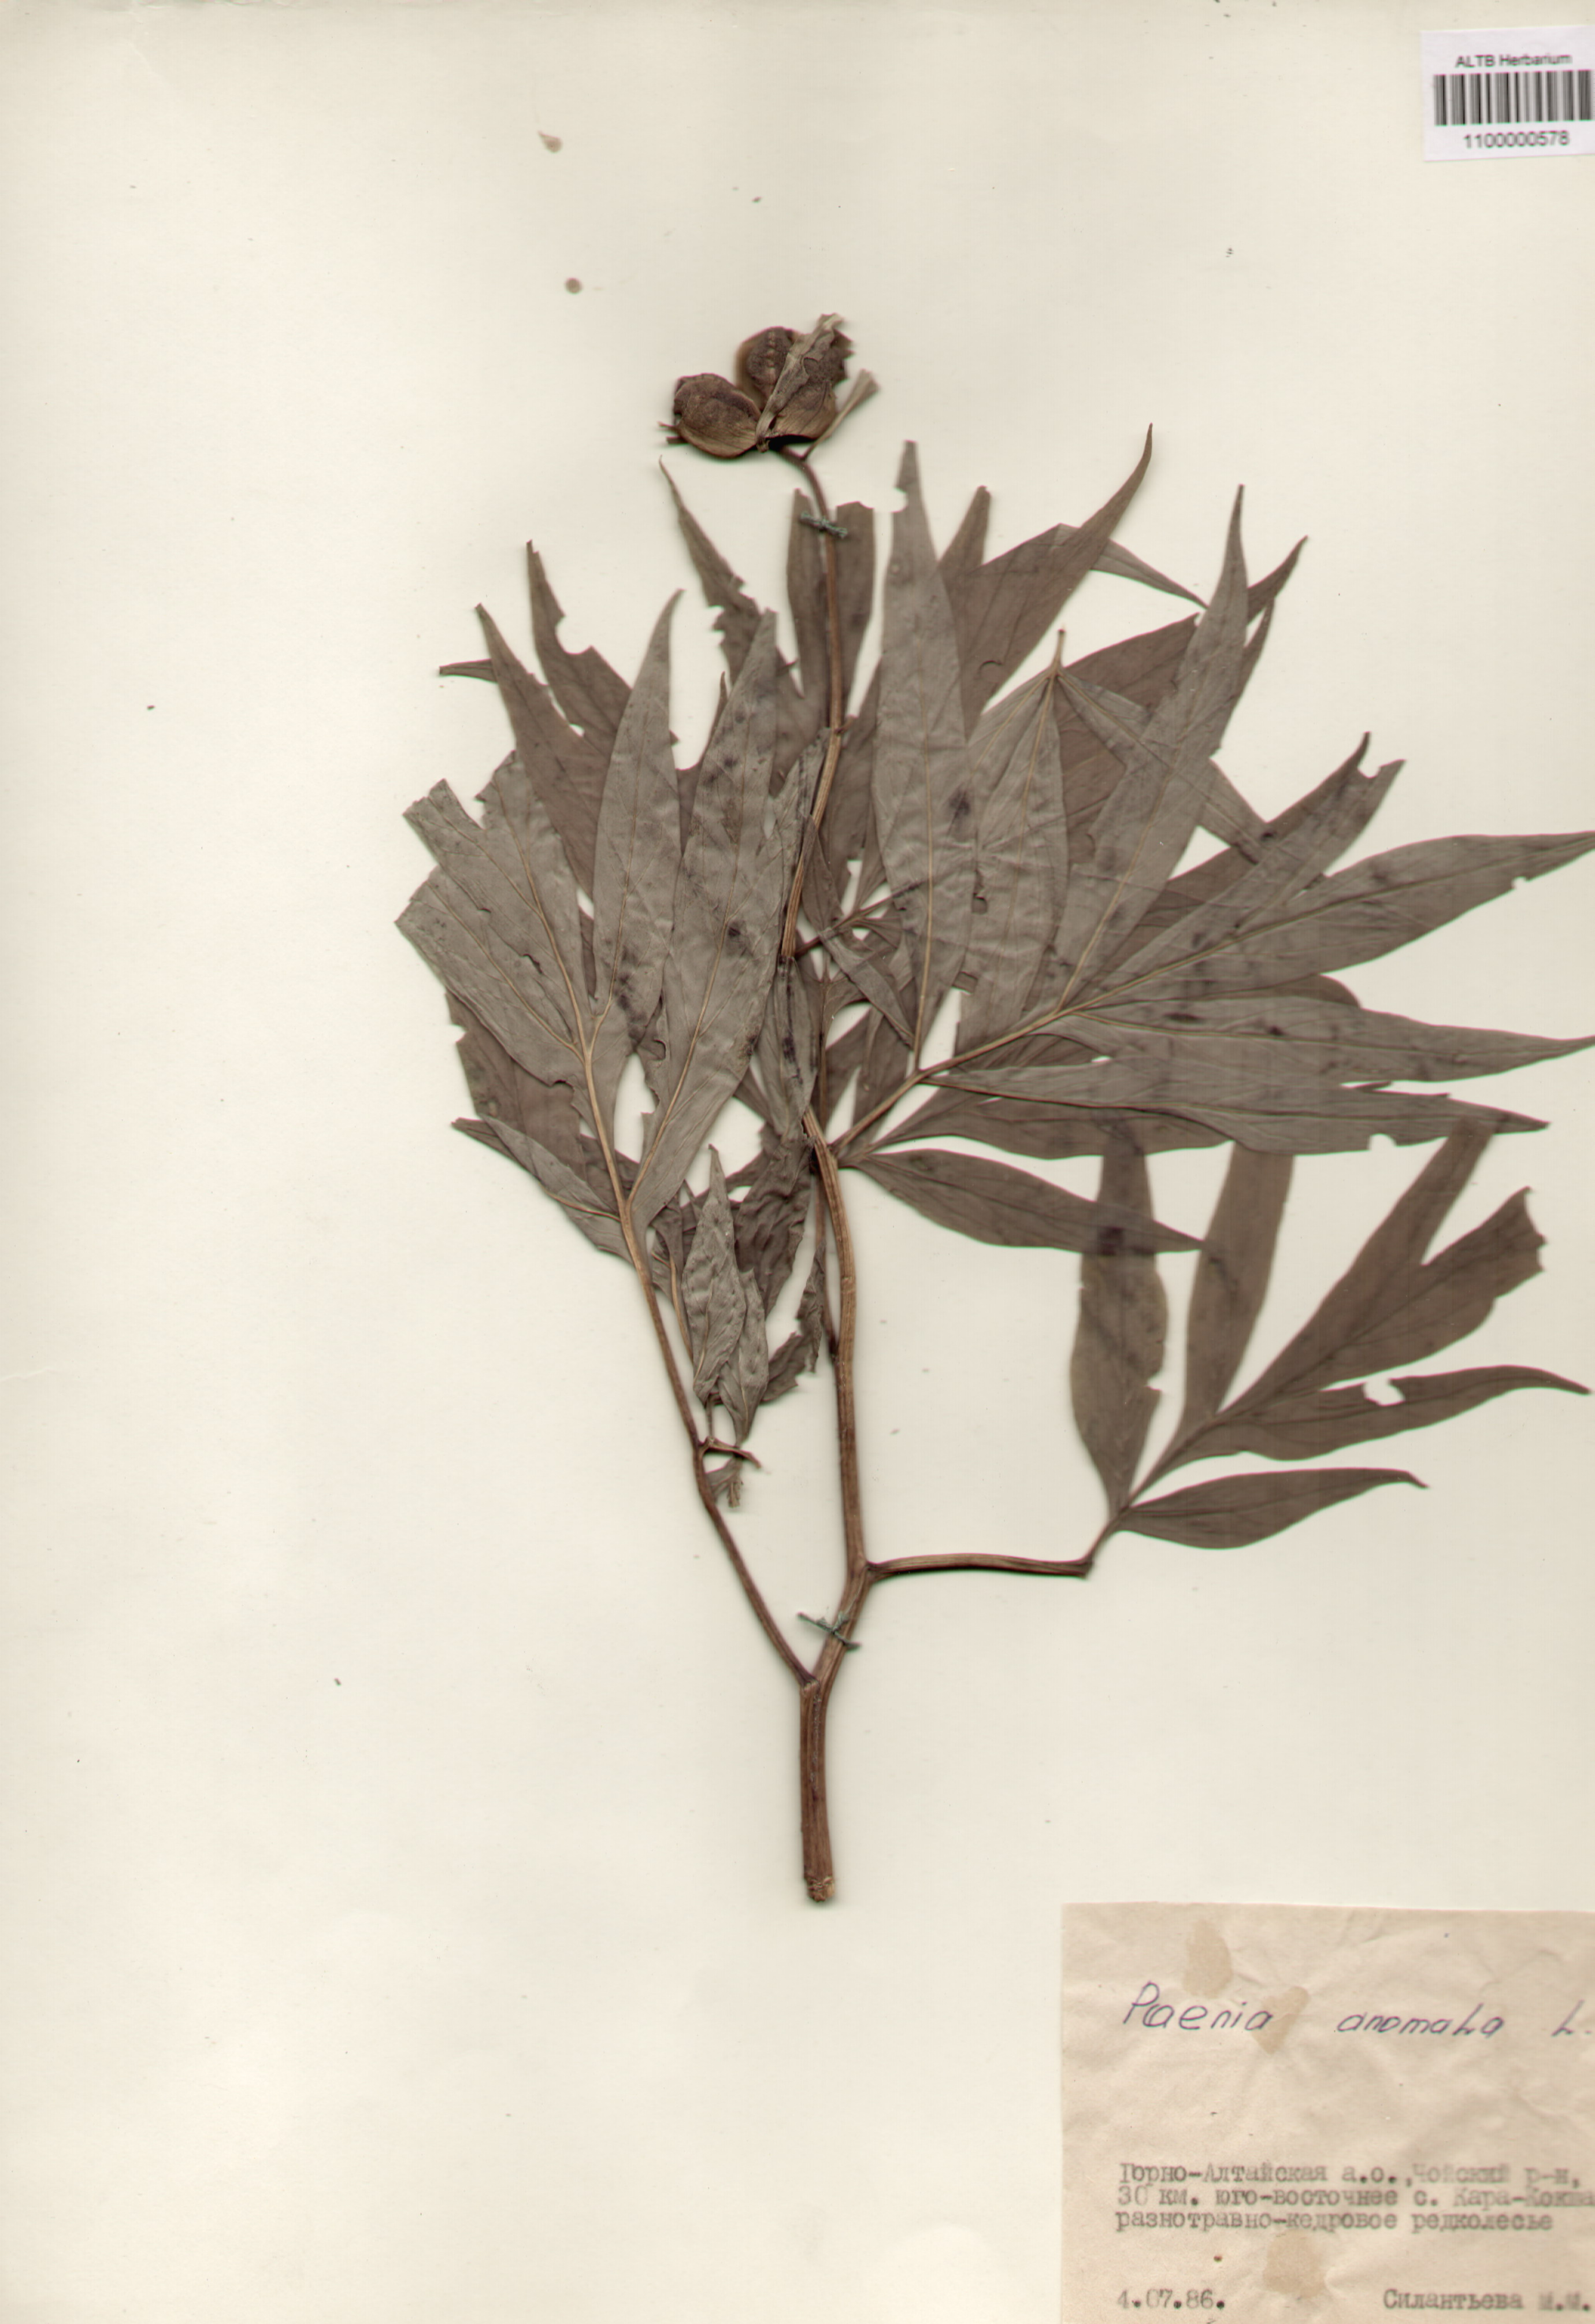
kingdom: Plantae
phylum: Tracheophyta
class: Magnoliopsida
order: Saxifragales
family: Paeoniaceae
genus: Paeonia
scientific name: Paeonia anomala
